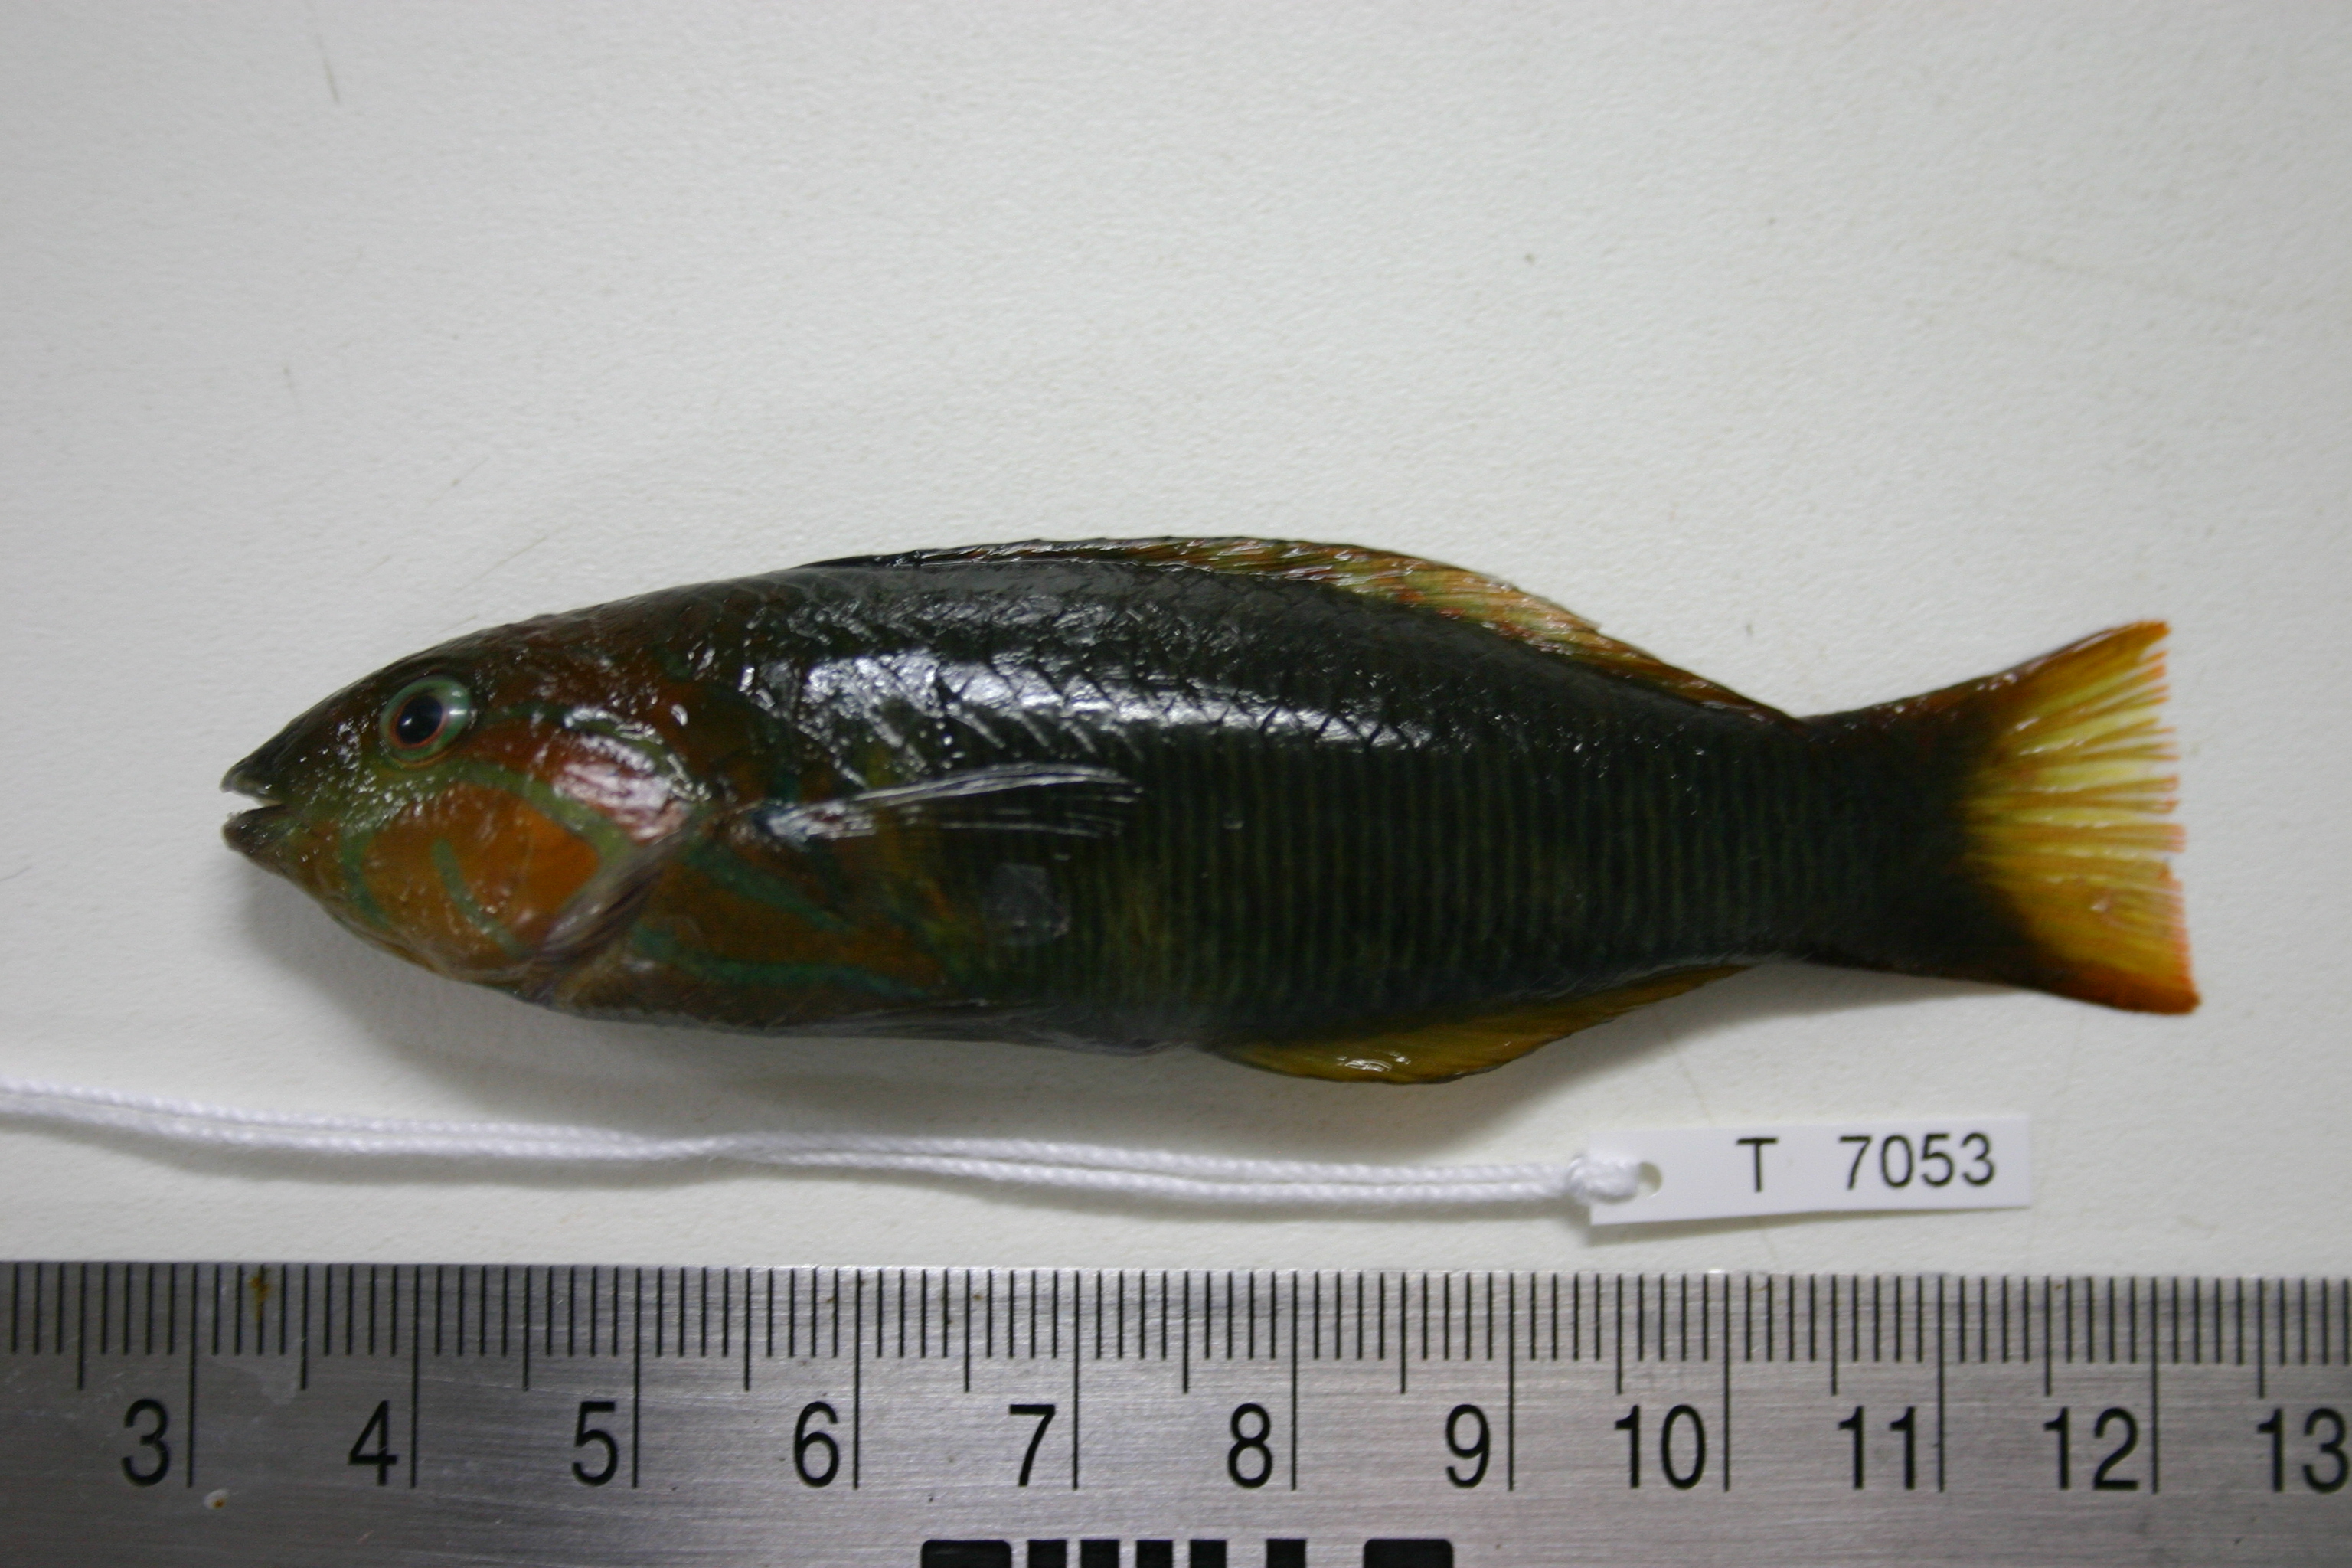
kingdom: Animalia
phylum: Chordata
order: Perciformes
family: Labridae
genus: Thalassoma
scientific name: Thalassoma hebraicum
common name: Goldbar wrasse
